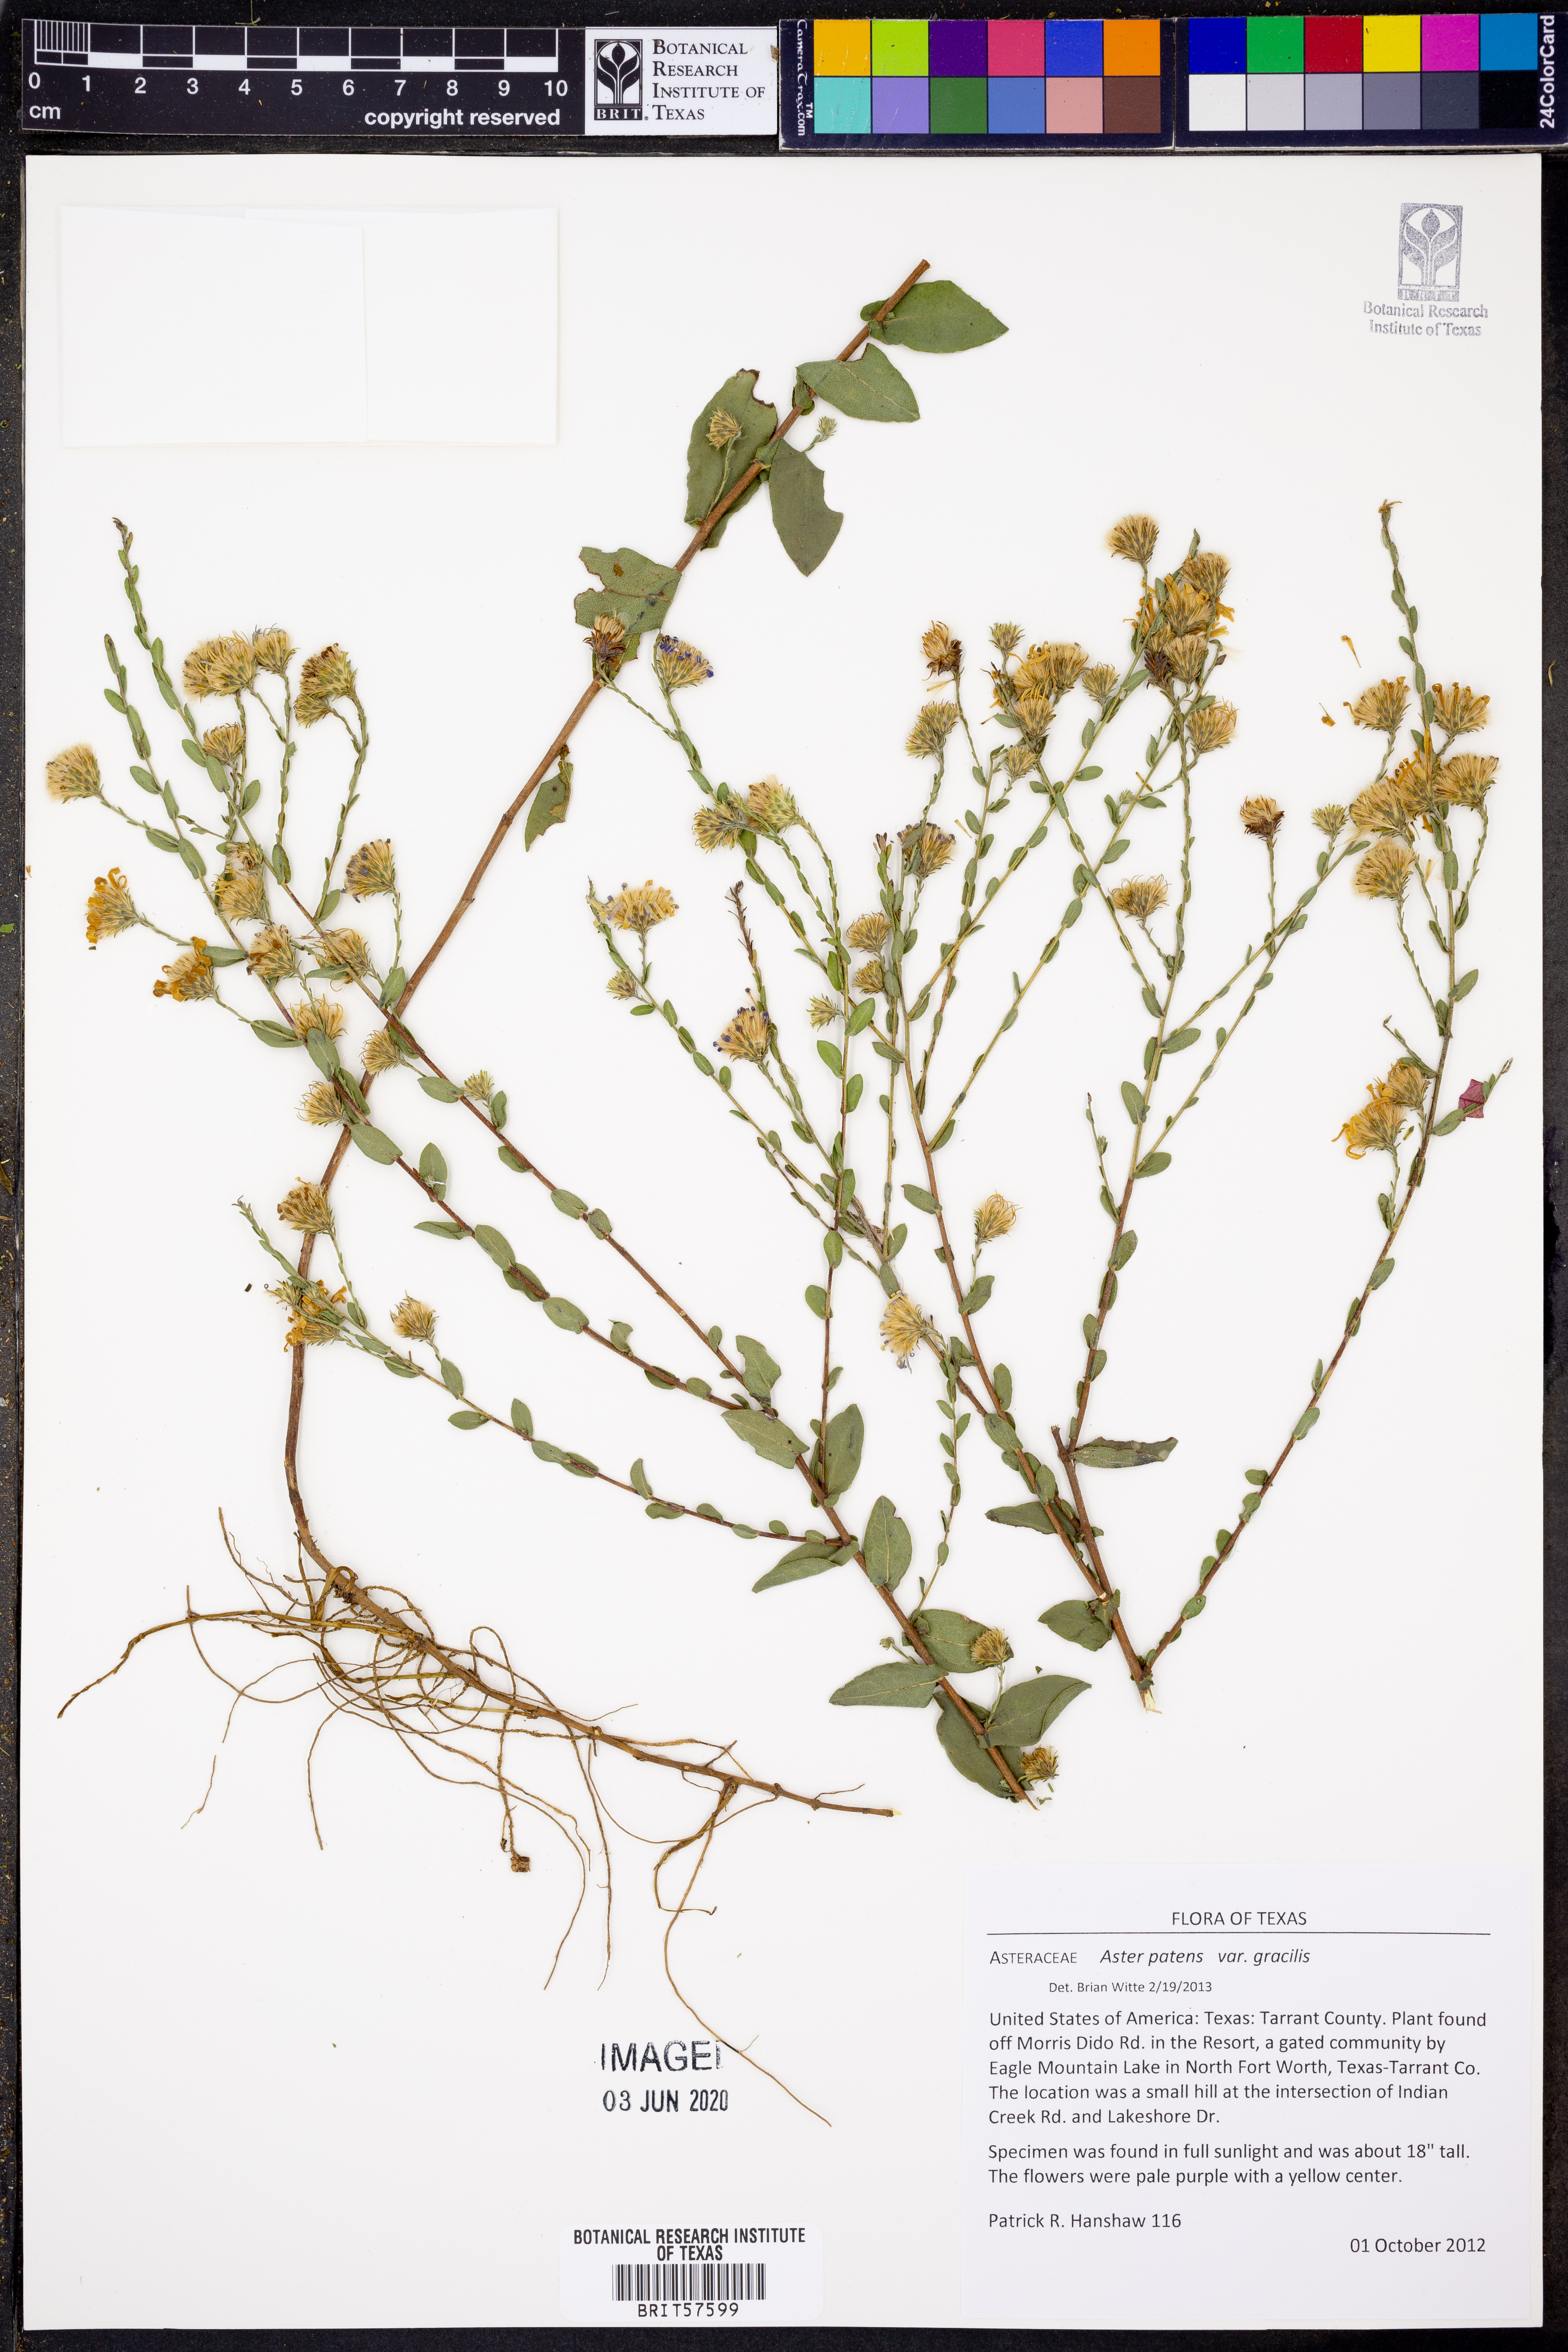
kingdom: Plantae
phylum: Tracheophyta
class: Magnoliopsida
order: Asterales
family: Asteraceae
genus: Symphyotrichum
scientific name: Symphyotrichum patens
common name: Late purple aster
